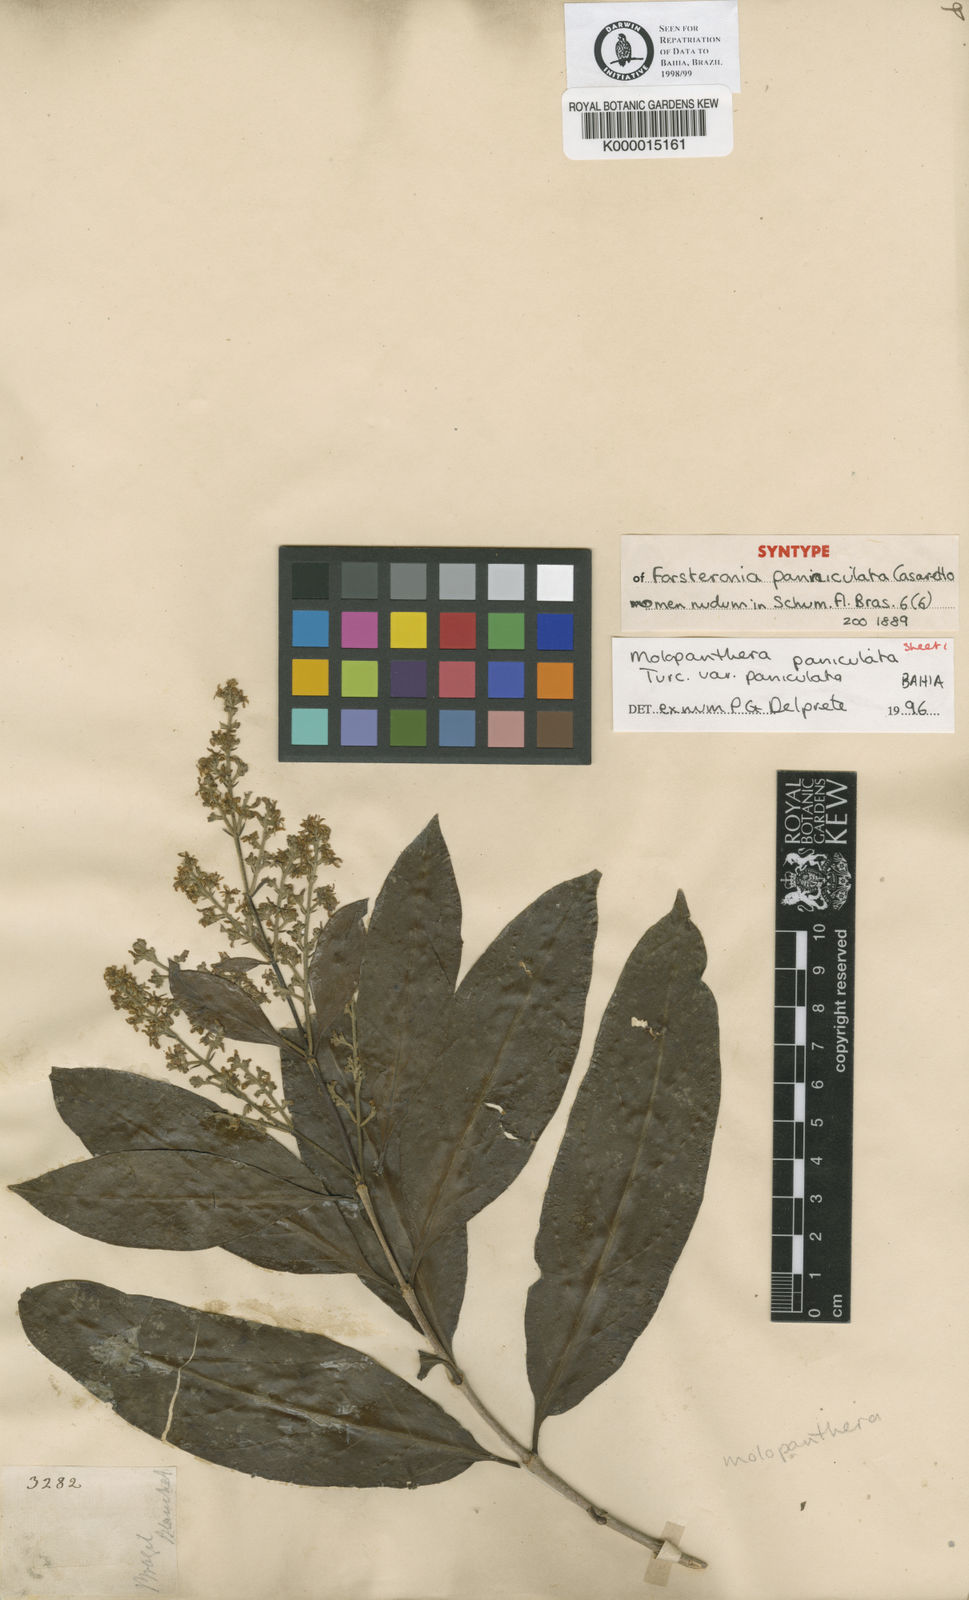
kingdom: Plantae
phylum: Tracheophyta
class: Magnoliopsida
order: Gentianales
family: Rubiaceae
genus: Molopanthera
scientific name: Molopanthera paniculata
